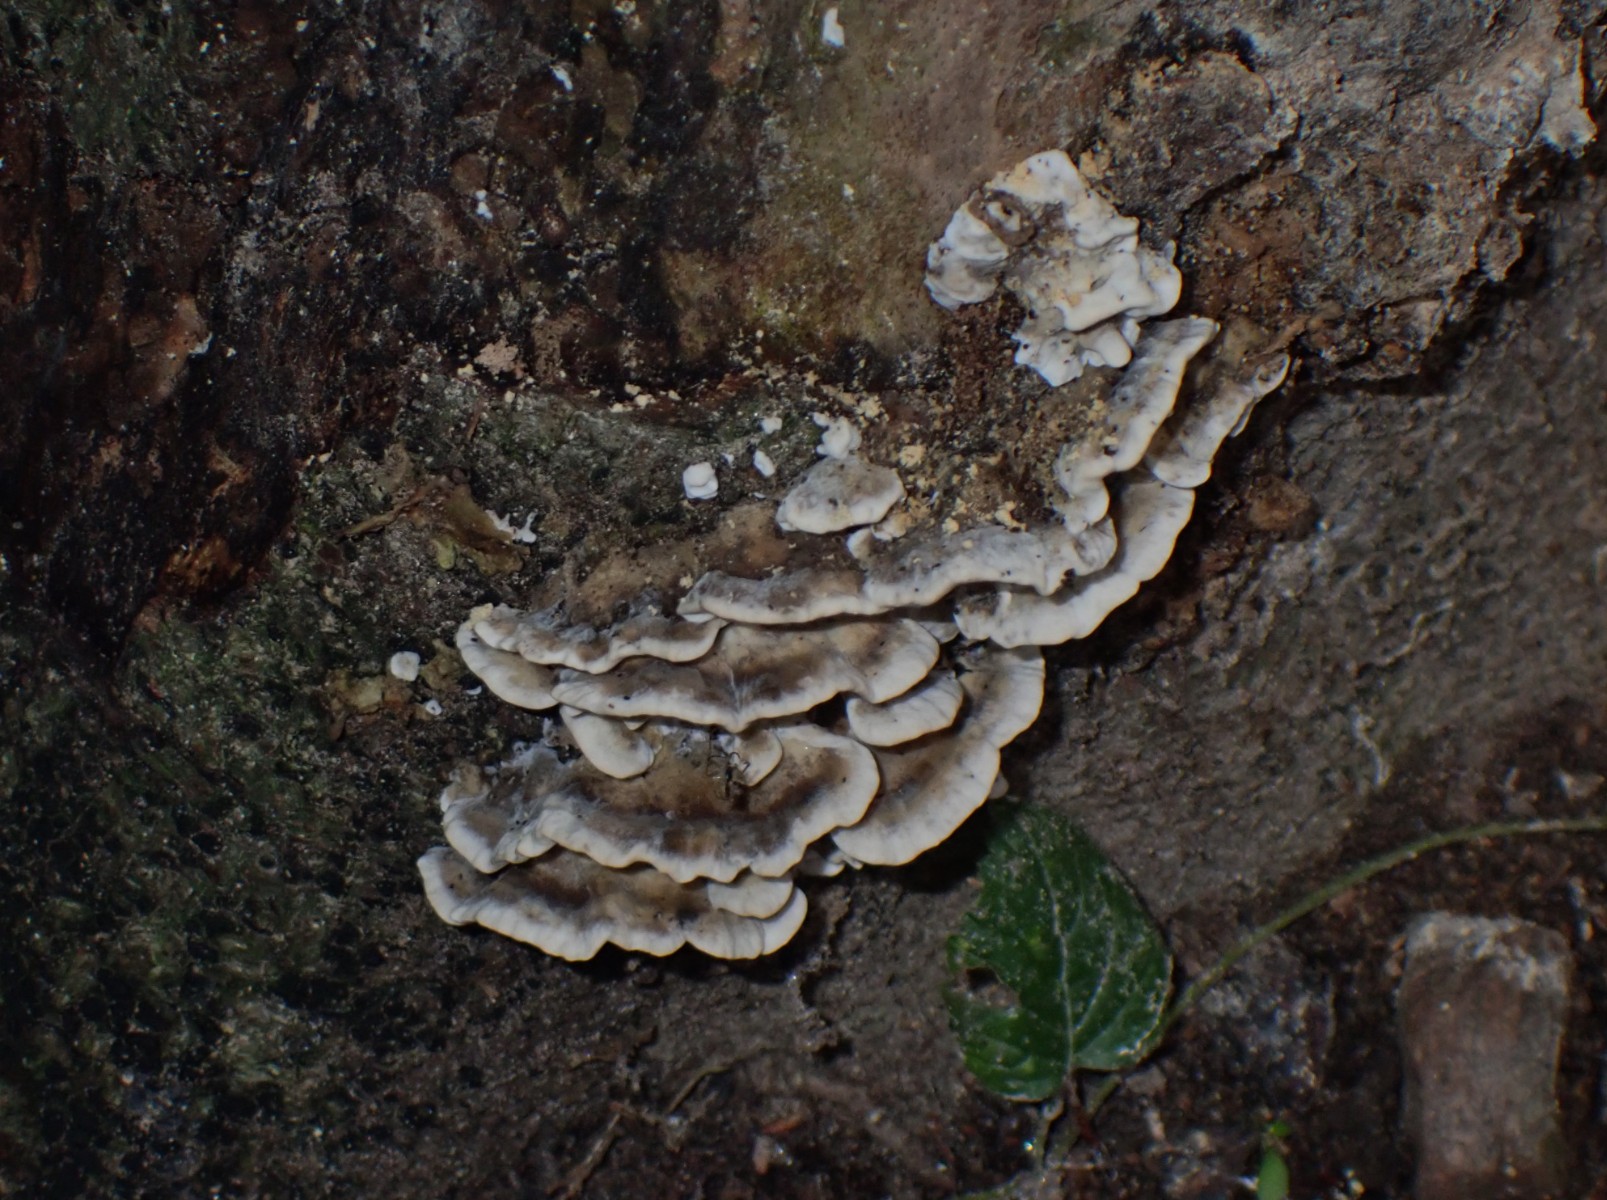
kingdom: Fungi
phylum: Basidiomycota
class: Agaricomycetes
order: Polyporales
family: Phanerochaetaceae
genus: Bjerkandera
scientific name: Bjerkandera adusta
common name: sveden sodporesvamp
